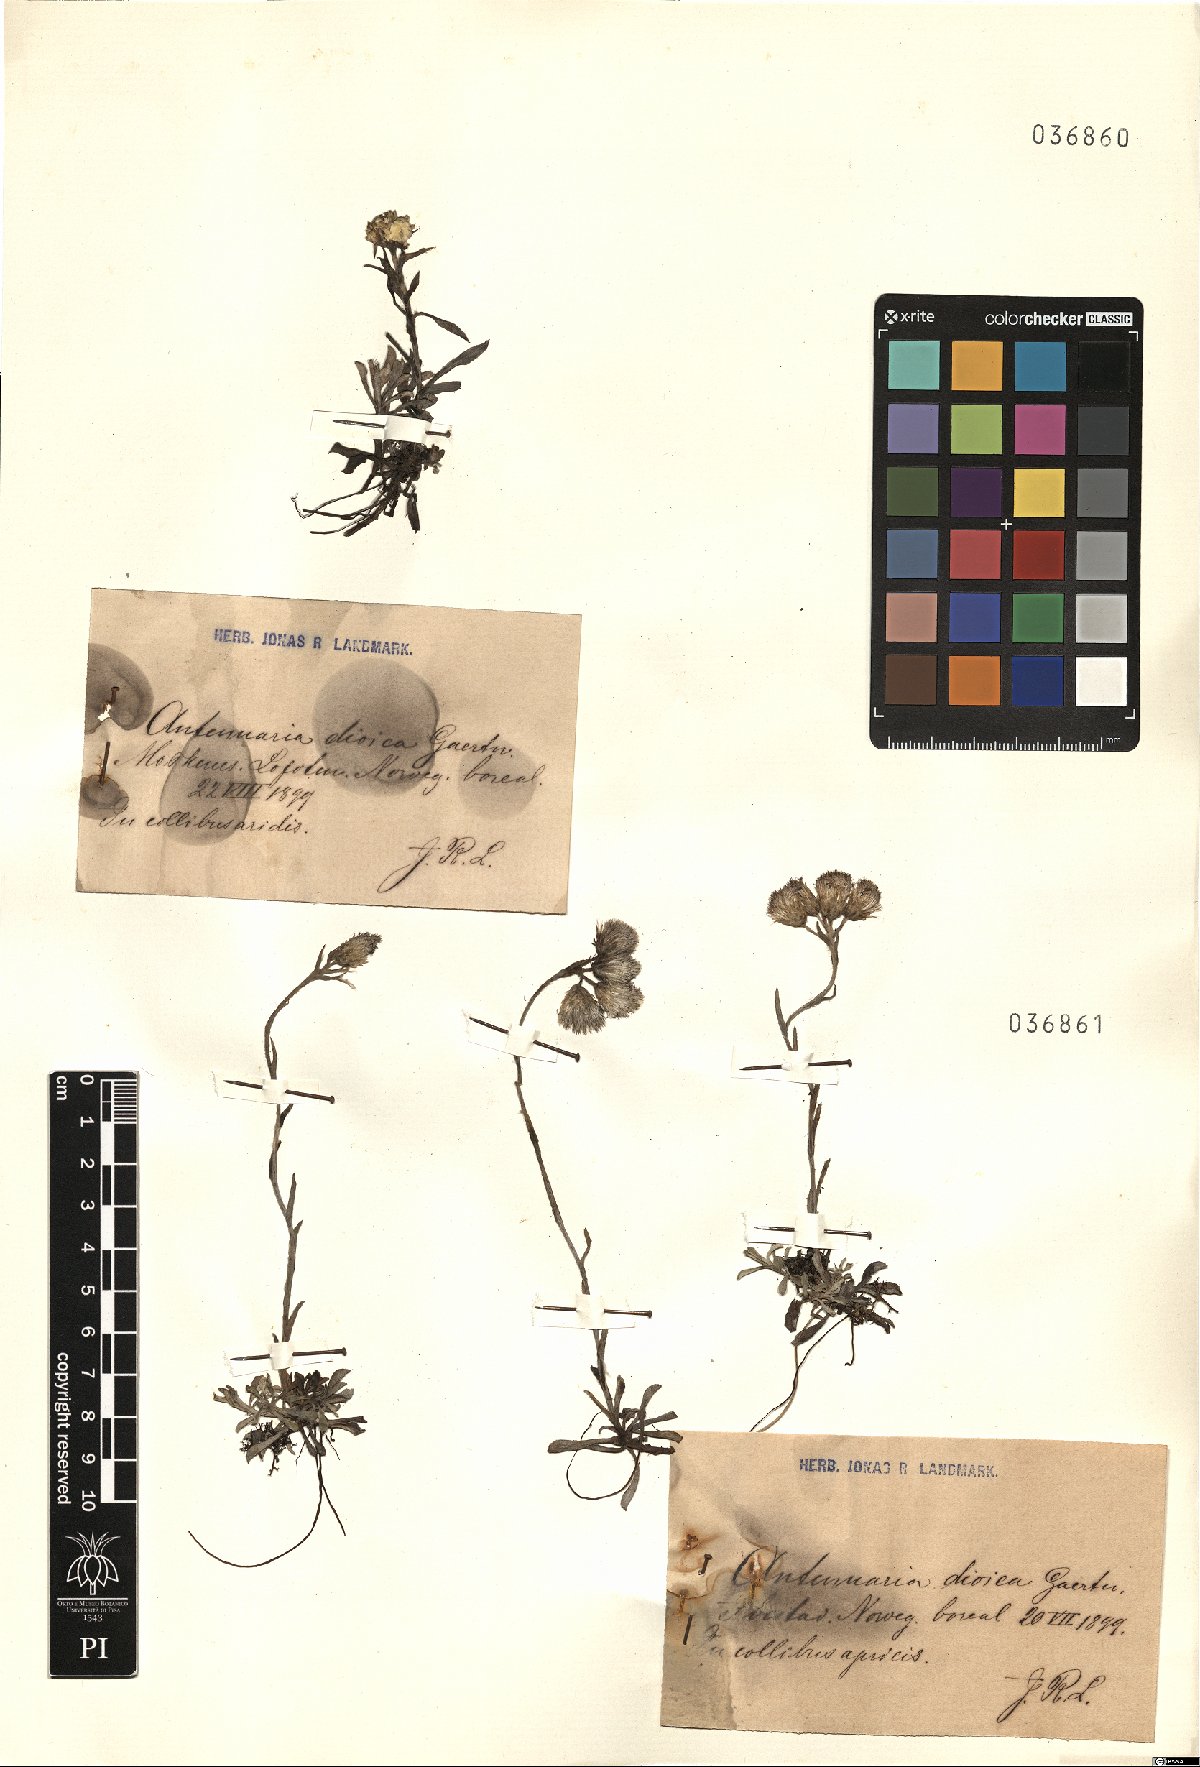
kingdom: Plantae
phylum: Tracheophyta
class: Magnoliopsida
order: Asterales
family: Asteraceae
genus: Antennaria
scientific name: Antennaria dioica
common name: Mountain everlasting
